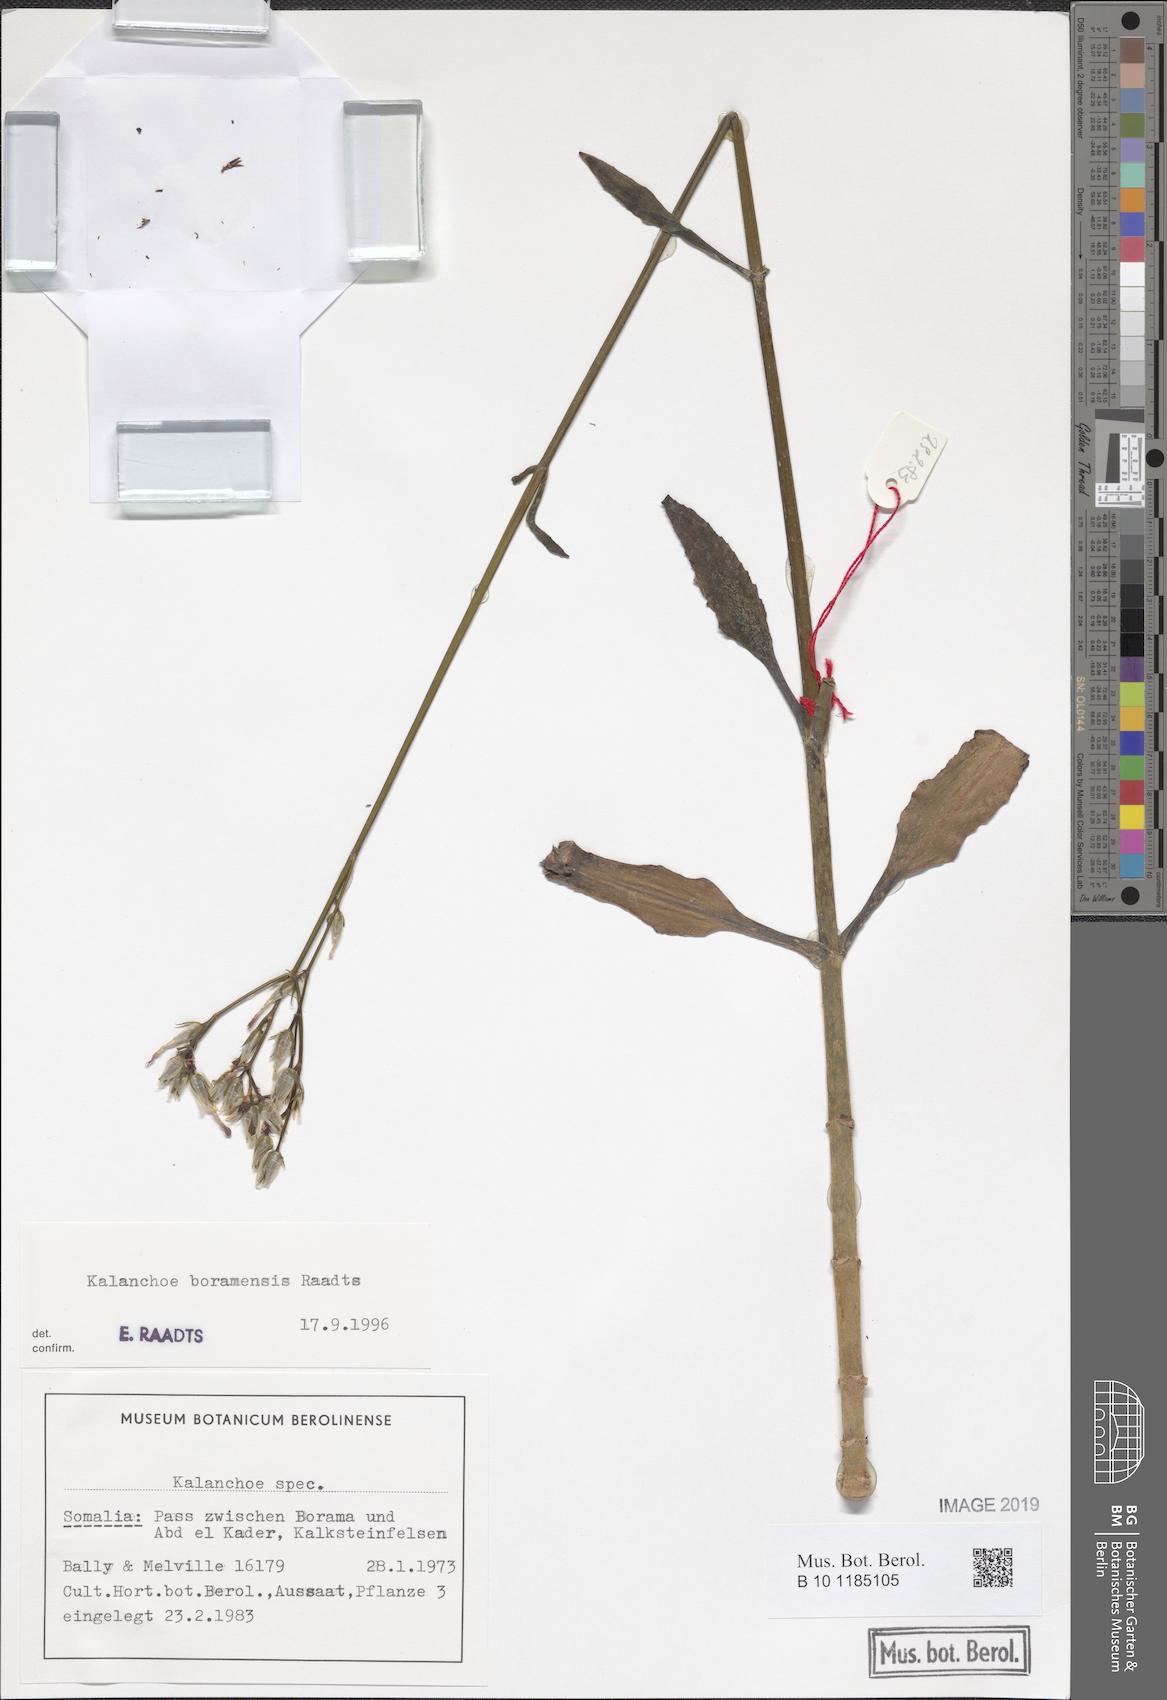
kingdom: Plantae
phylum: Tracheophyta
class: Magnoliopsida
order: Saxifragales
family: Crassulaceae
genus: Kalanchoe
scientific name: Kalanchoe
